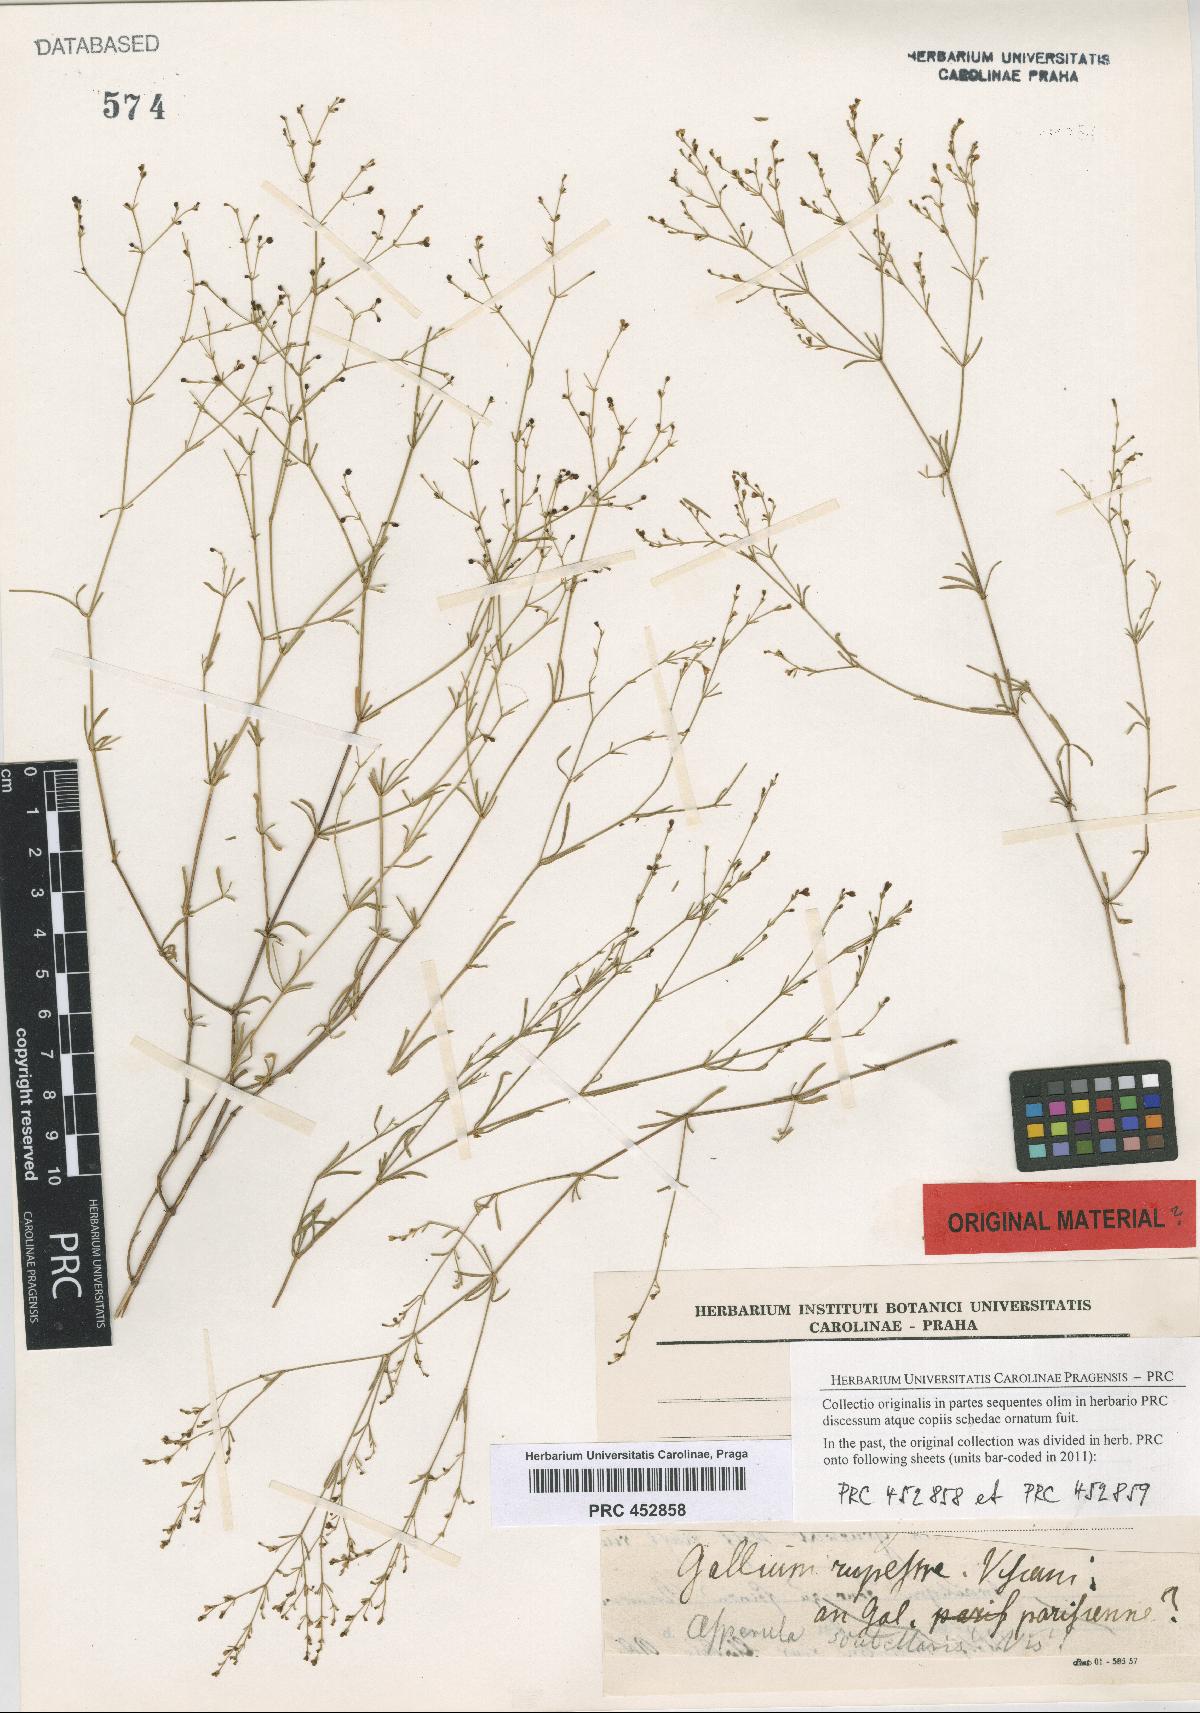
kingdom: Plantae
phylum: Tracheophyta
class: Magnoliopsida
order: Gentianales
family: Rubiaceae
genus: Thliphthisa
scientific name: Thliphthisa rupestris
